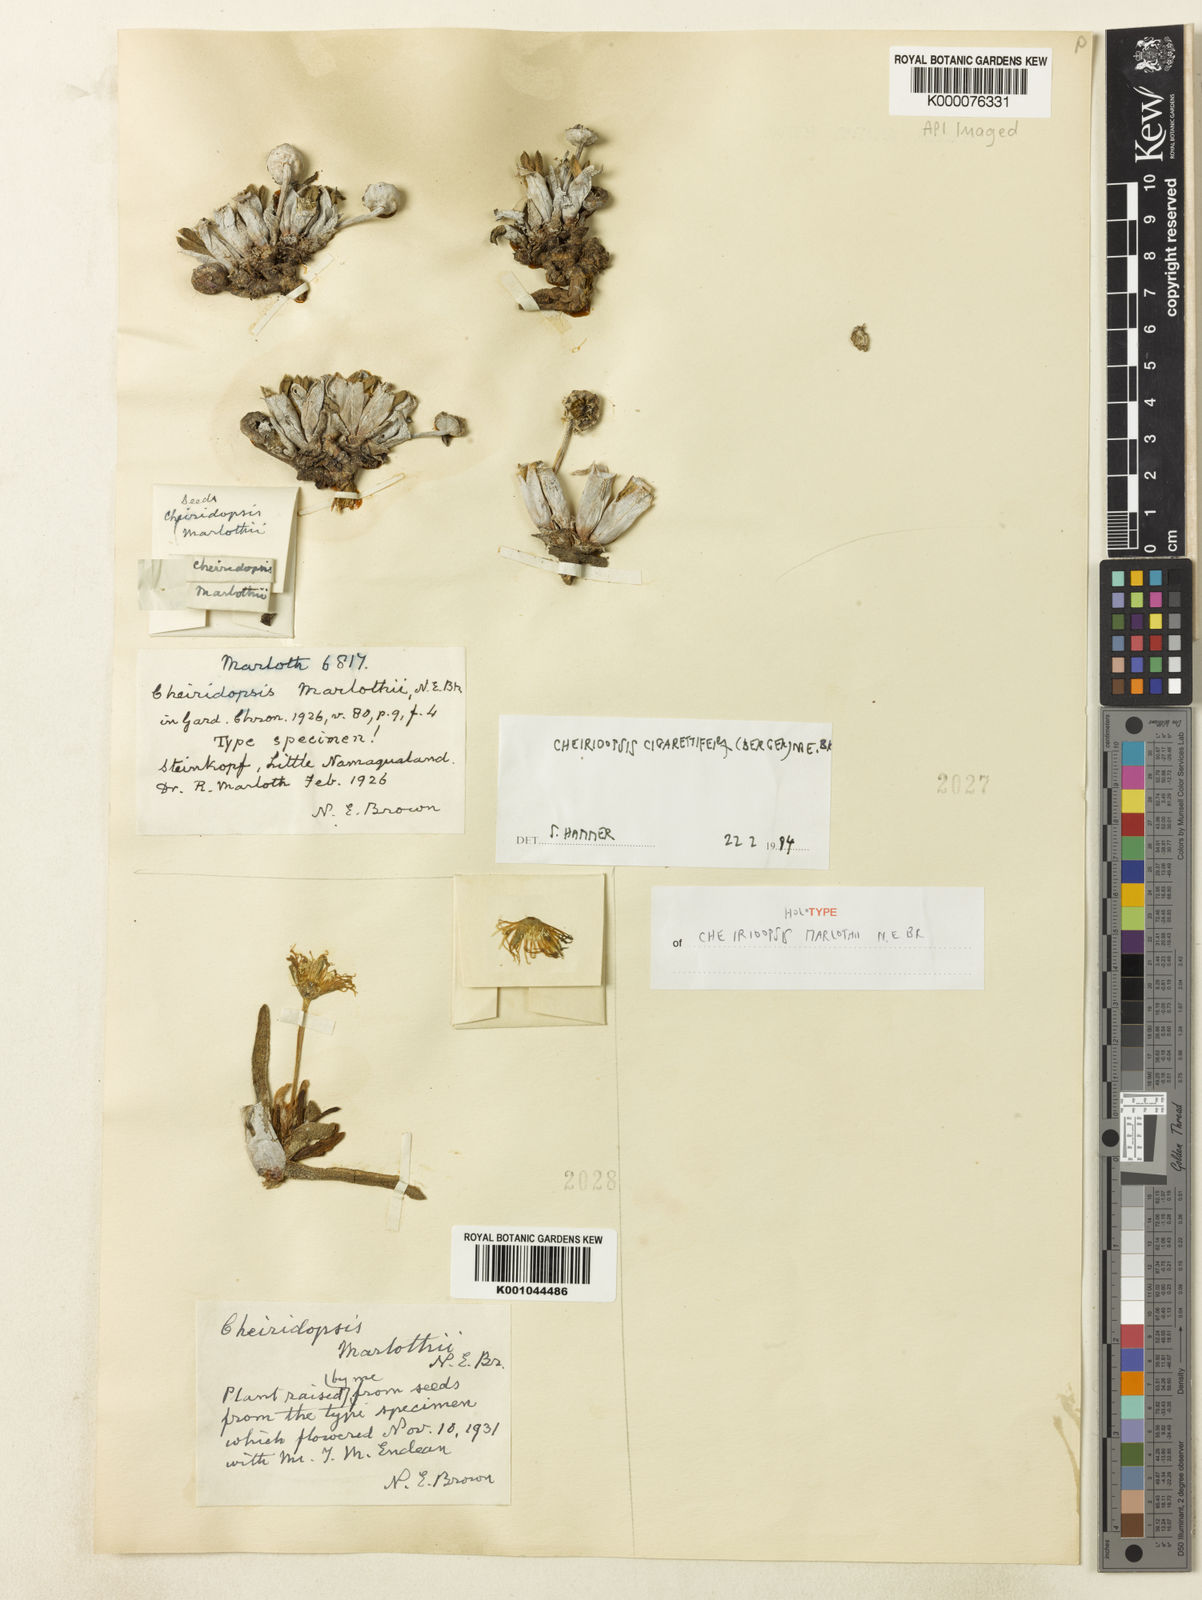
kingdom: Plantae
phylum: Tracheophyta
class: Magnoliopsida
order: Caryophyllales
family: Aizoaceae
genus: Cheiridopsis
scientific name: Cheiridopsis namaquensis
